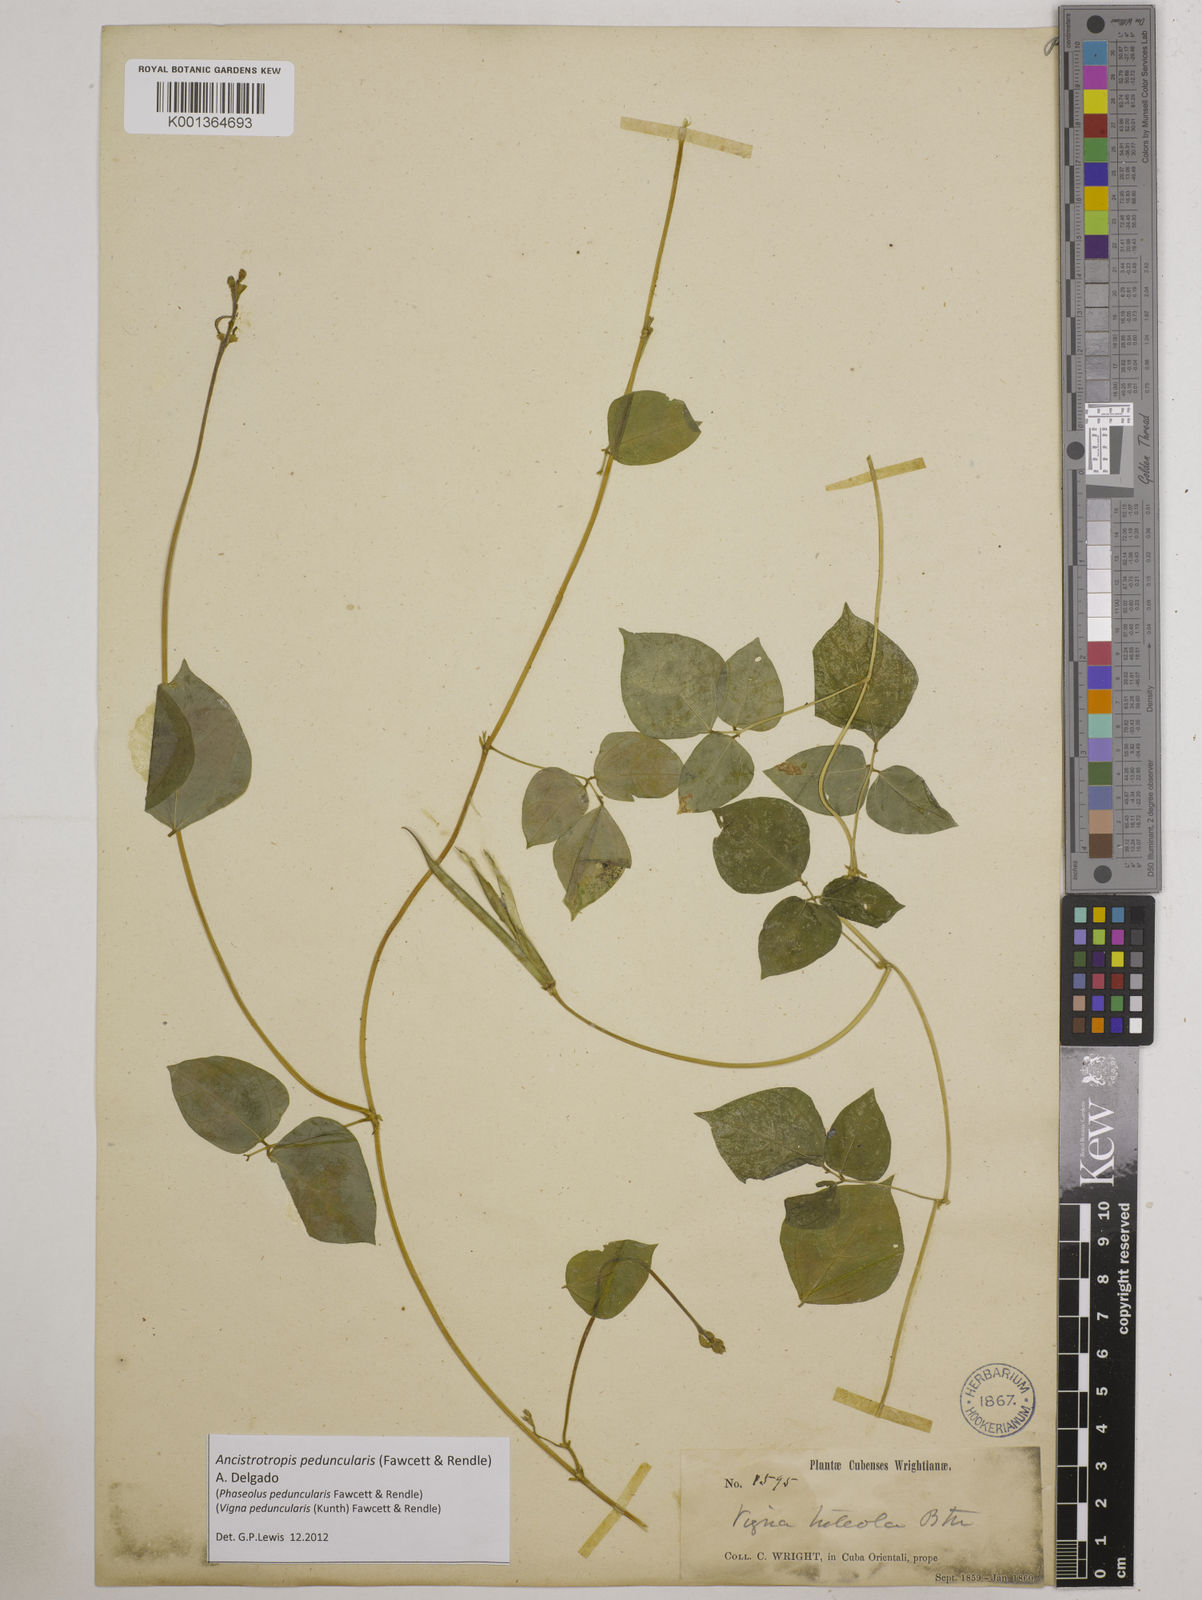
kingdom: Plantae
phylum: Tracheophyta
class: Magnoliopsida
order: Fabales
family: Fabaceae
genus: Ancistrotropis
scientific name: Ancistrotropis peduncularis
